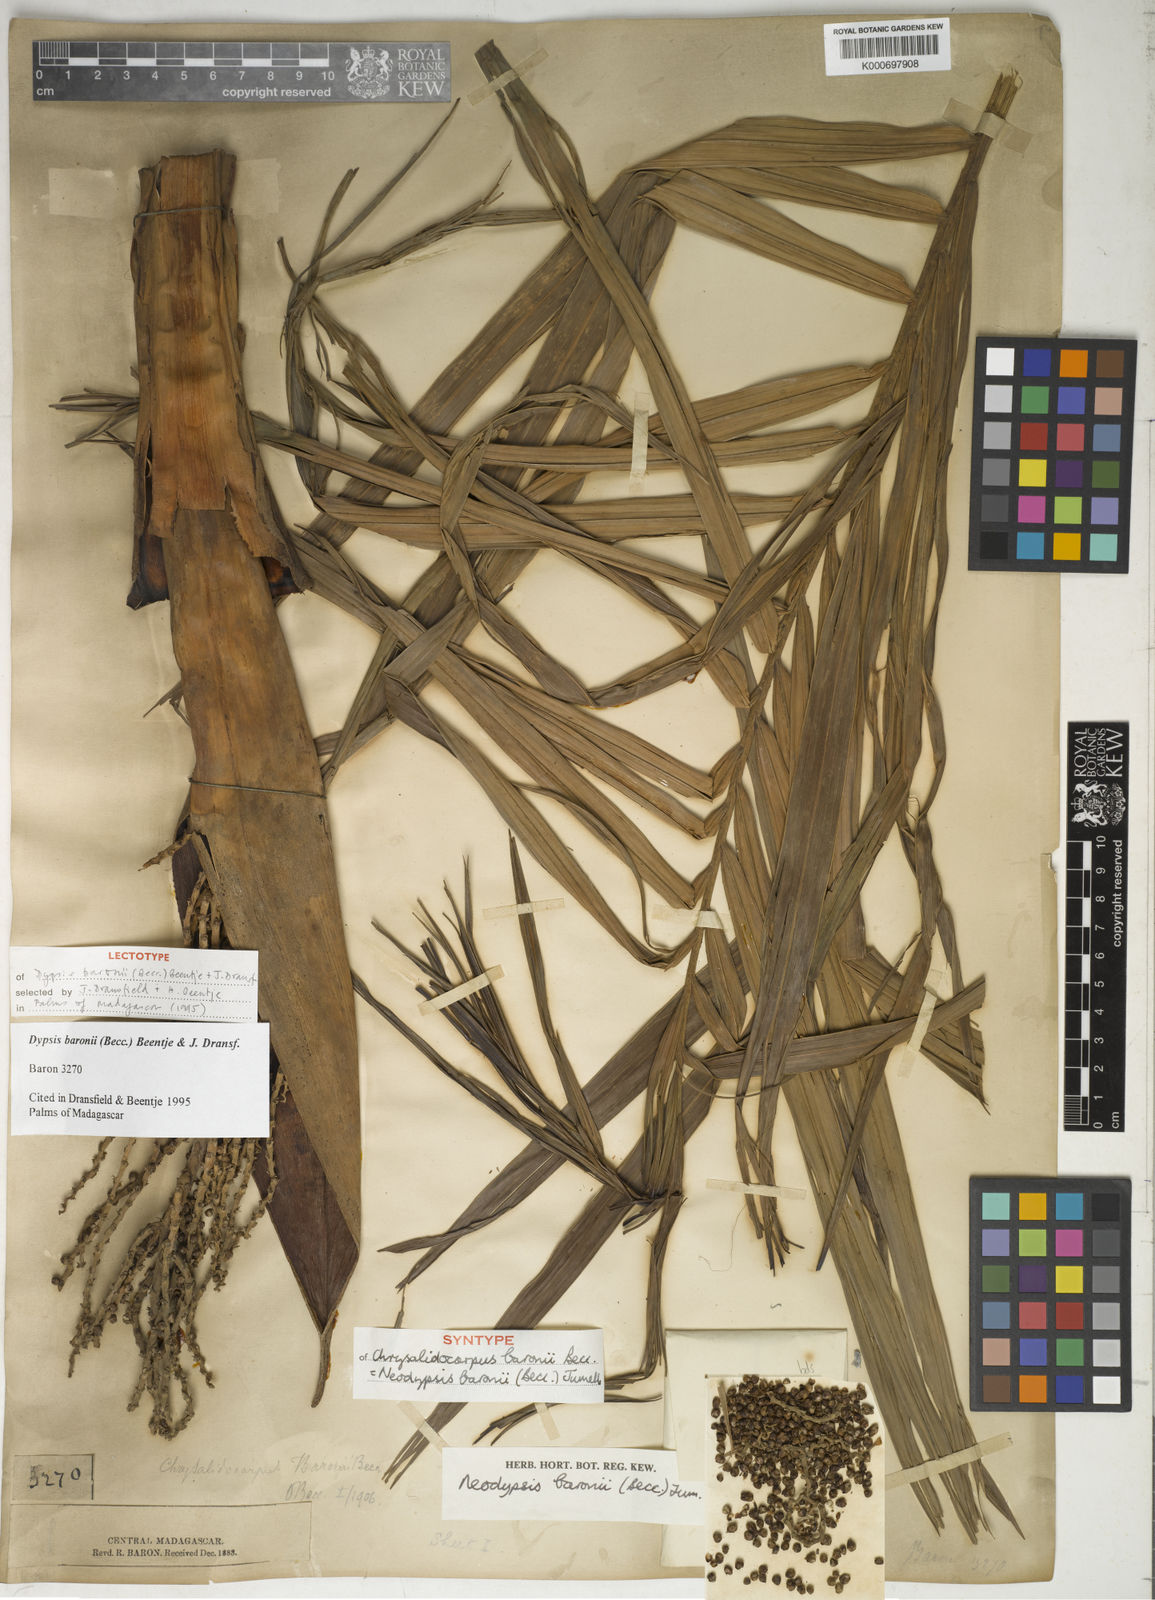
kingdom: Plantae
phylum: Tracheophyta
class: Liliopsida
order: Arecales
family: Arecaceae
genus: Dypsis
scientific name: Dypsis baronii
